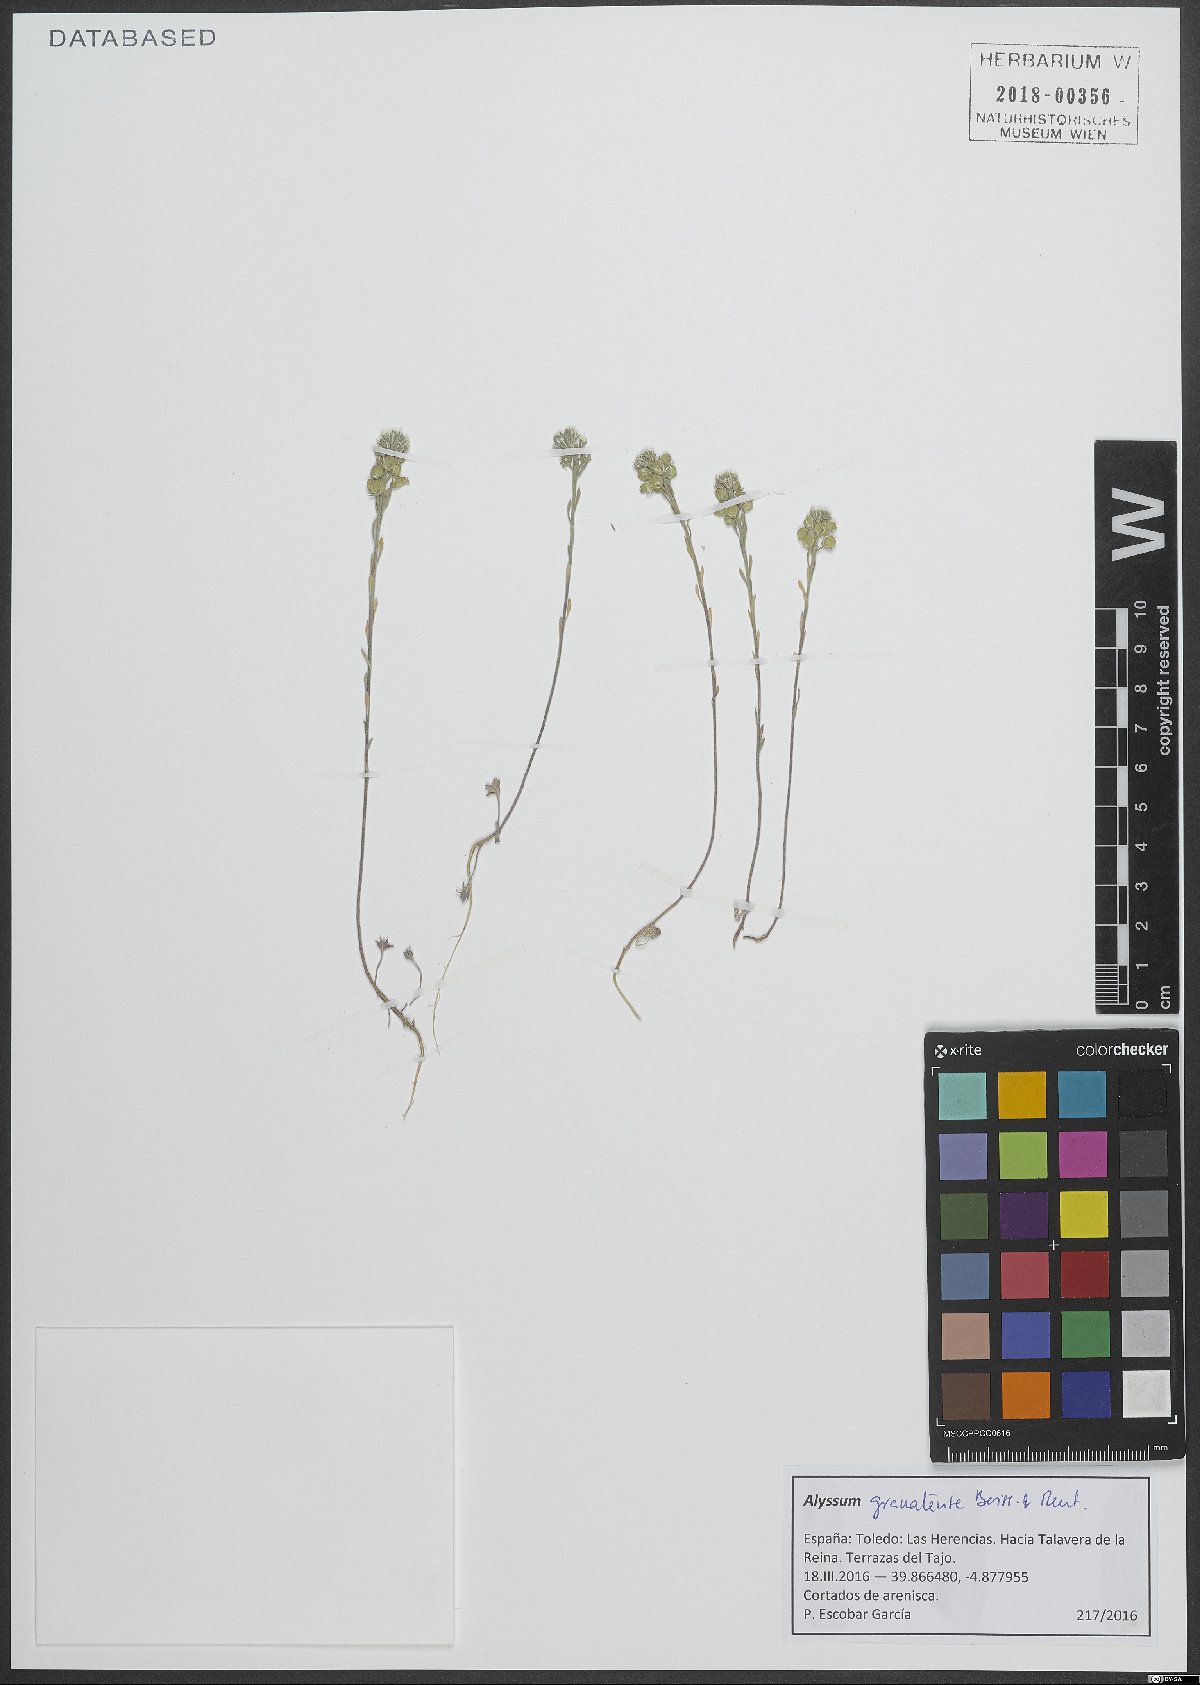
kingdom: Plantae
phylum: Tracheophyta
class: Magnoliopsida
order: Brassicales
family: Brassicaceae
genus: Alyssum
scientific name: Alyssum granatense
